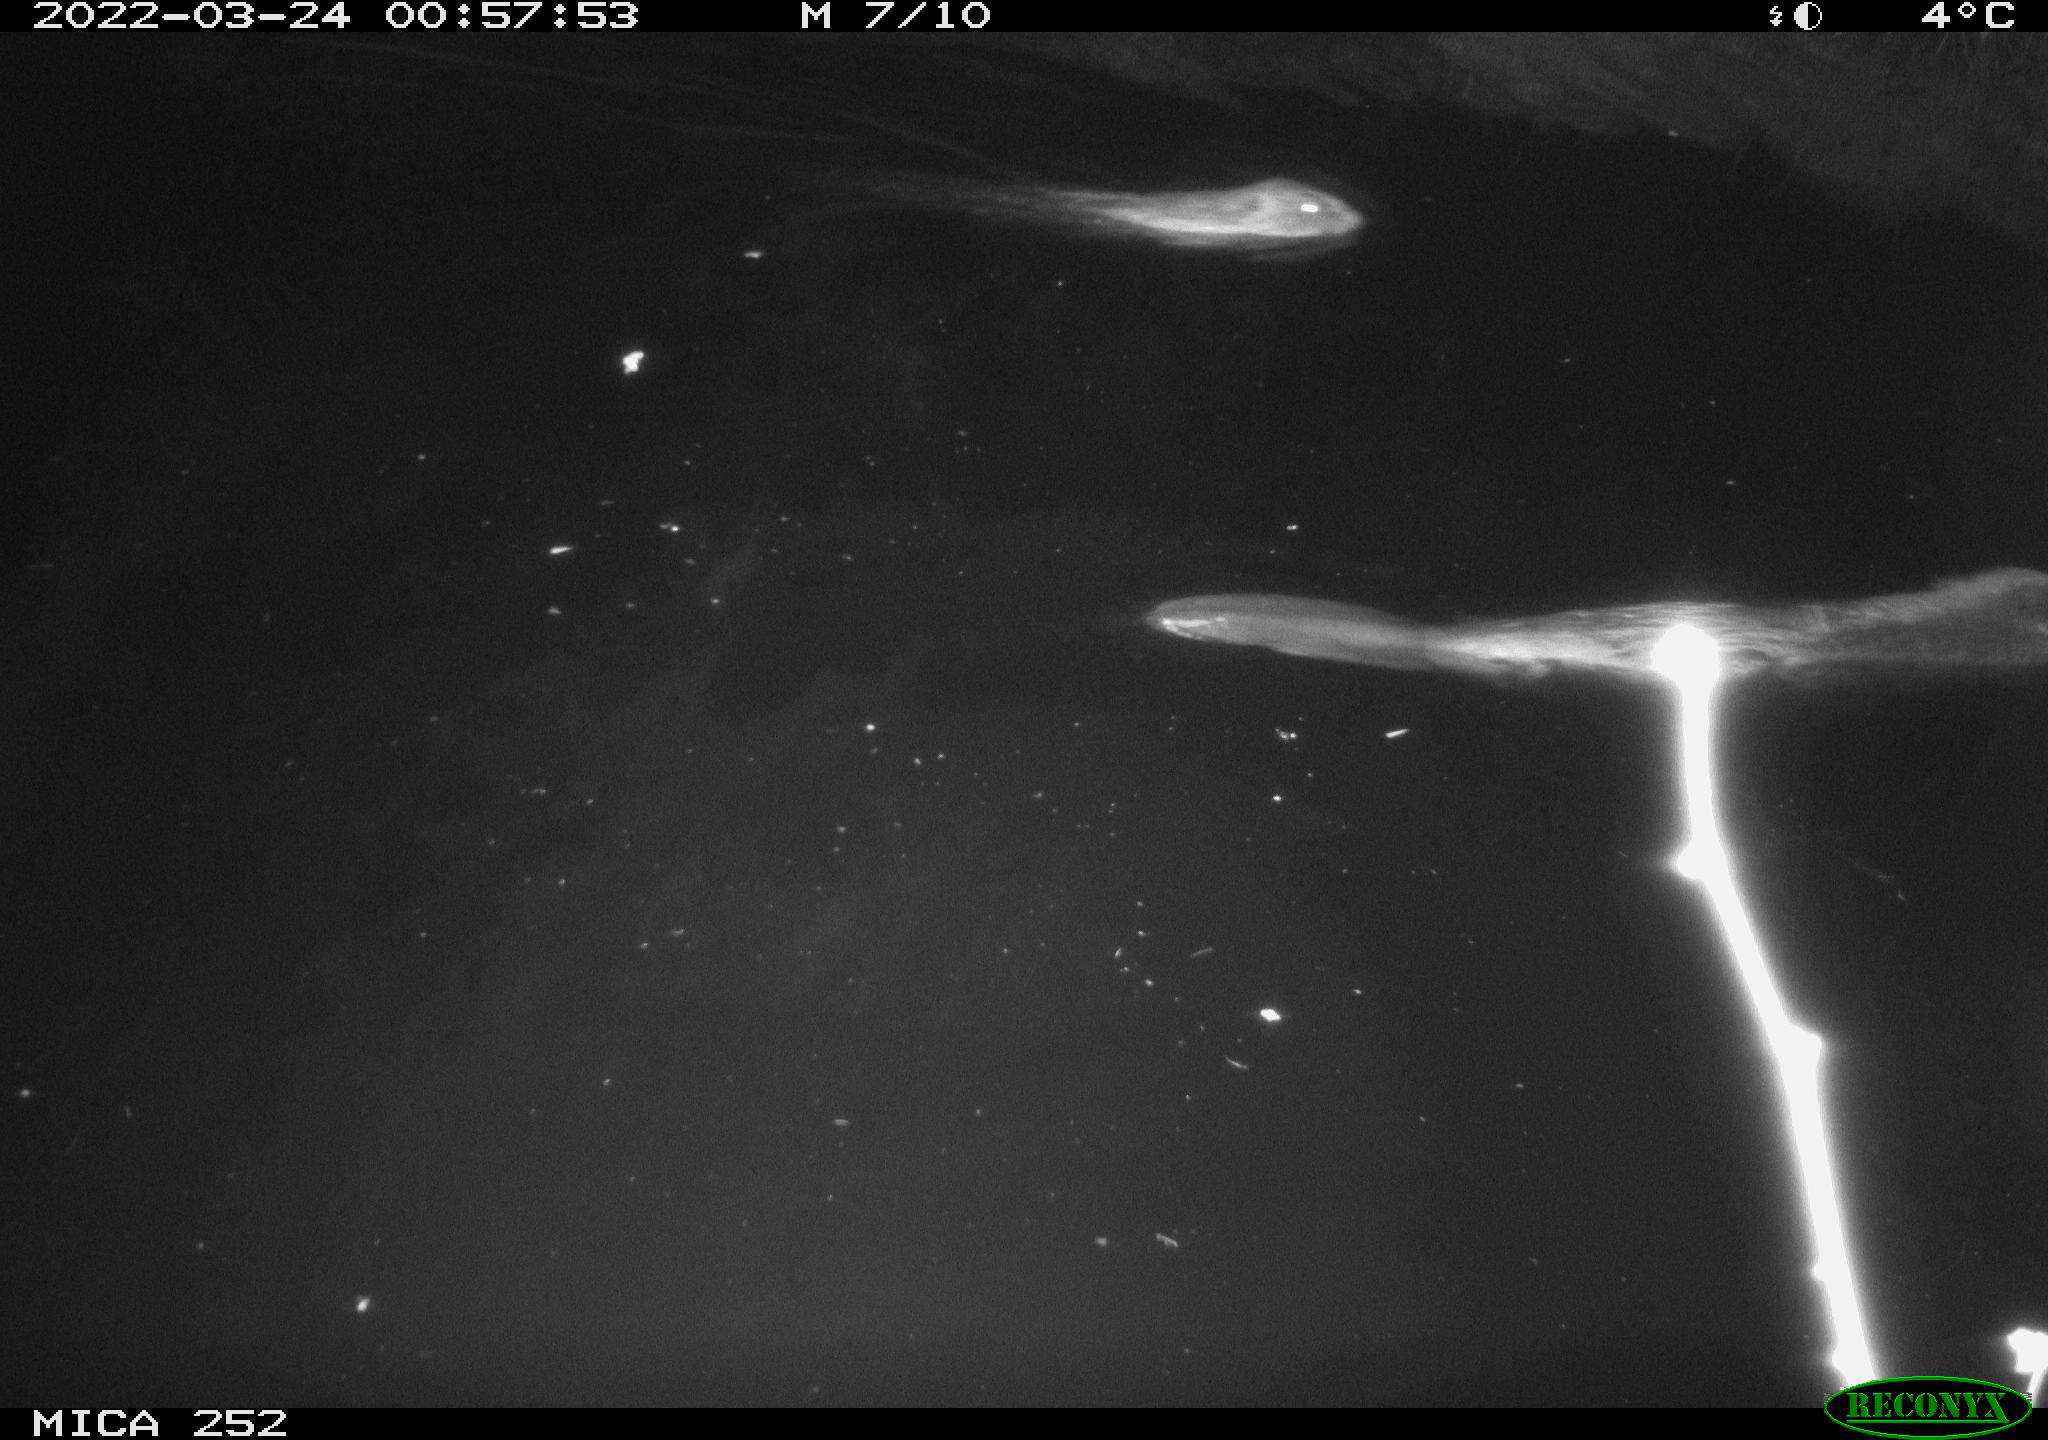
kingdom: Animalia
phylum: Chordata
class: Mammalia
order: Rodentia
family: Castoridae
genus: Castor
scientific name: Castor fiber
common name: Eurasian beaver
